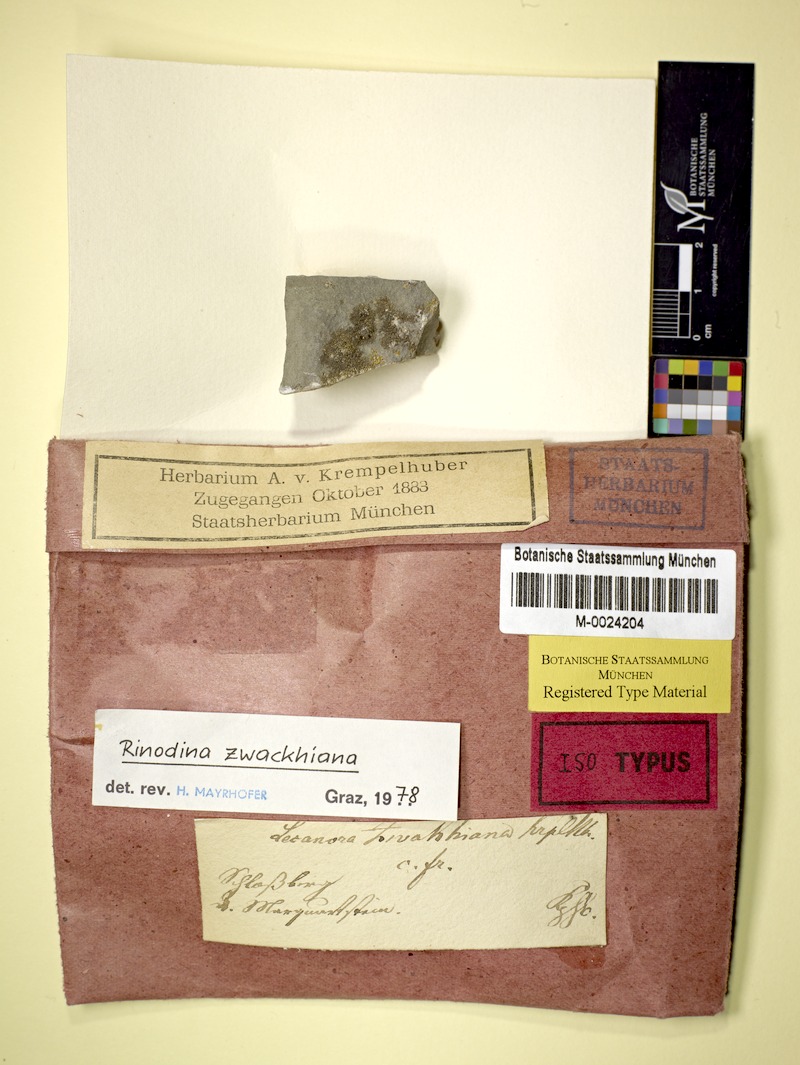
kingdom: Fungi
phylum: Ascomycota
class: Lecanoromycetes
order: Caliciales
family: Physciaceae
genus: Johnsheardia
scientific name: Johnsheardia zwackhiana
